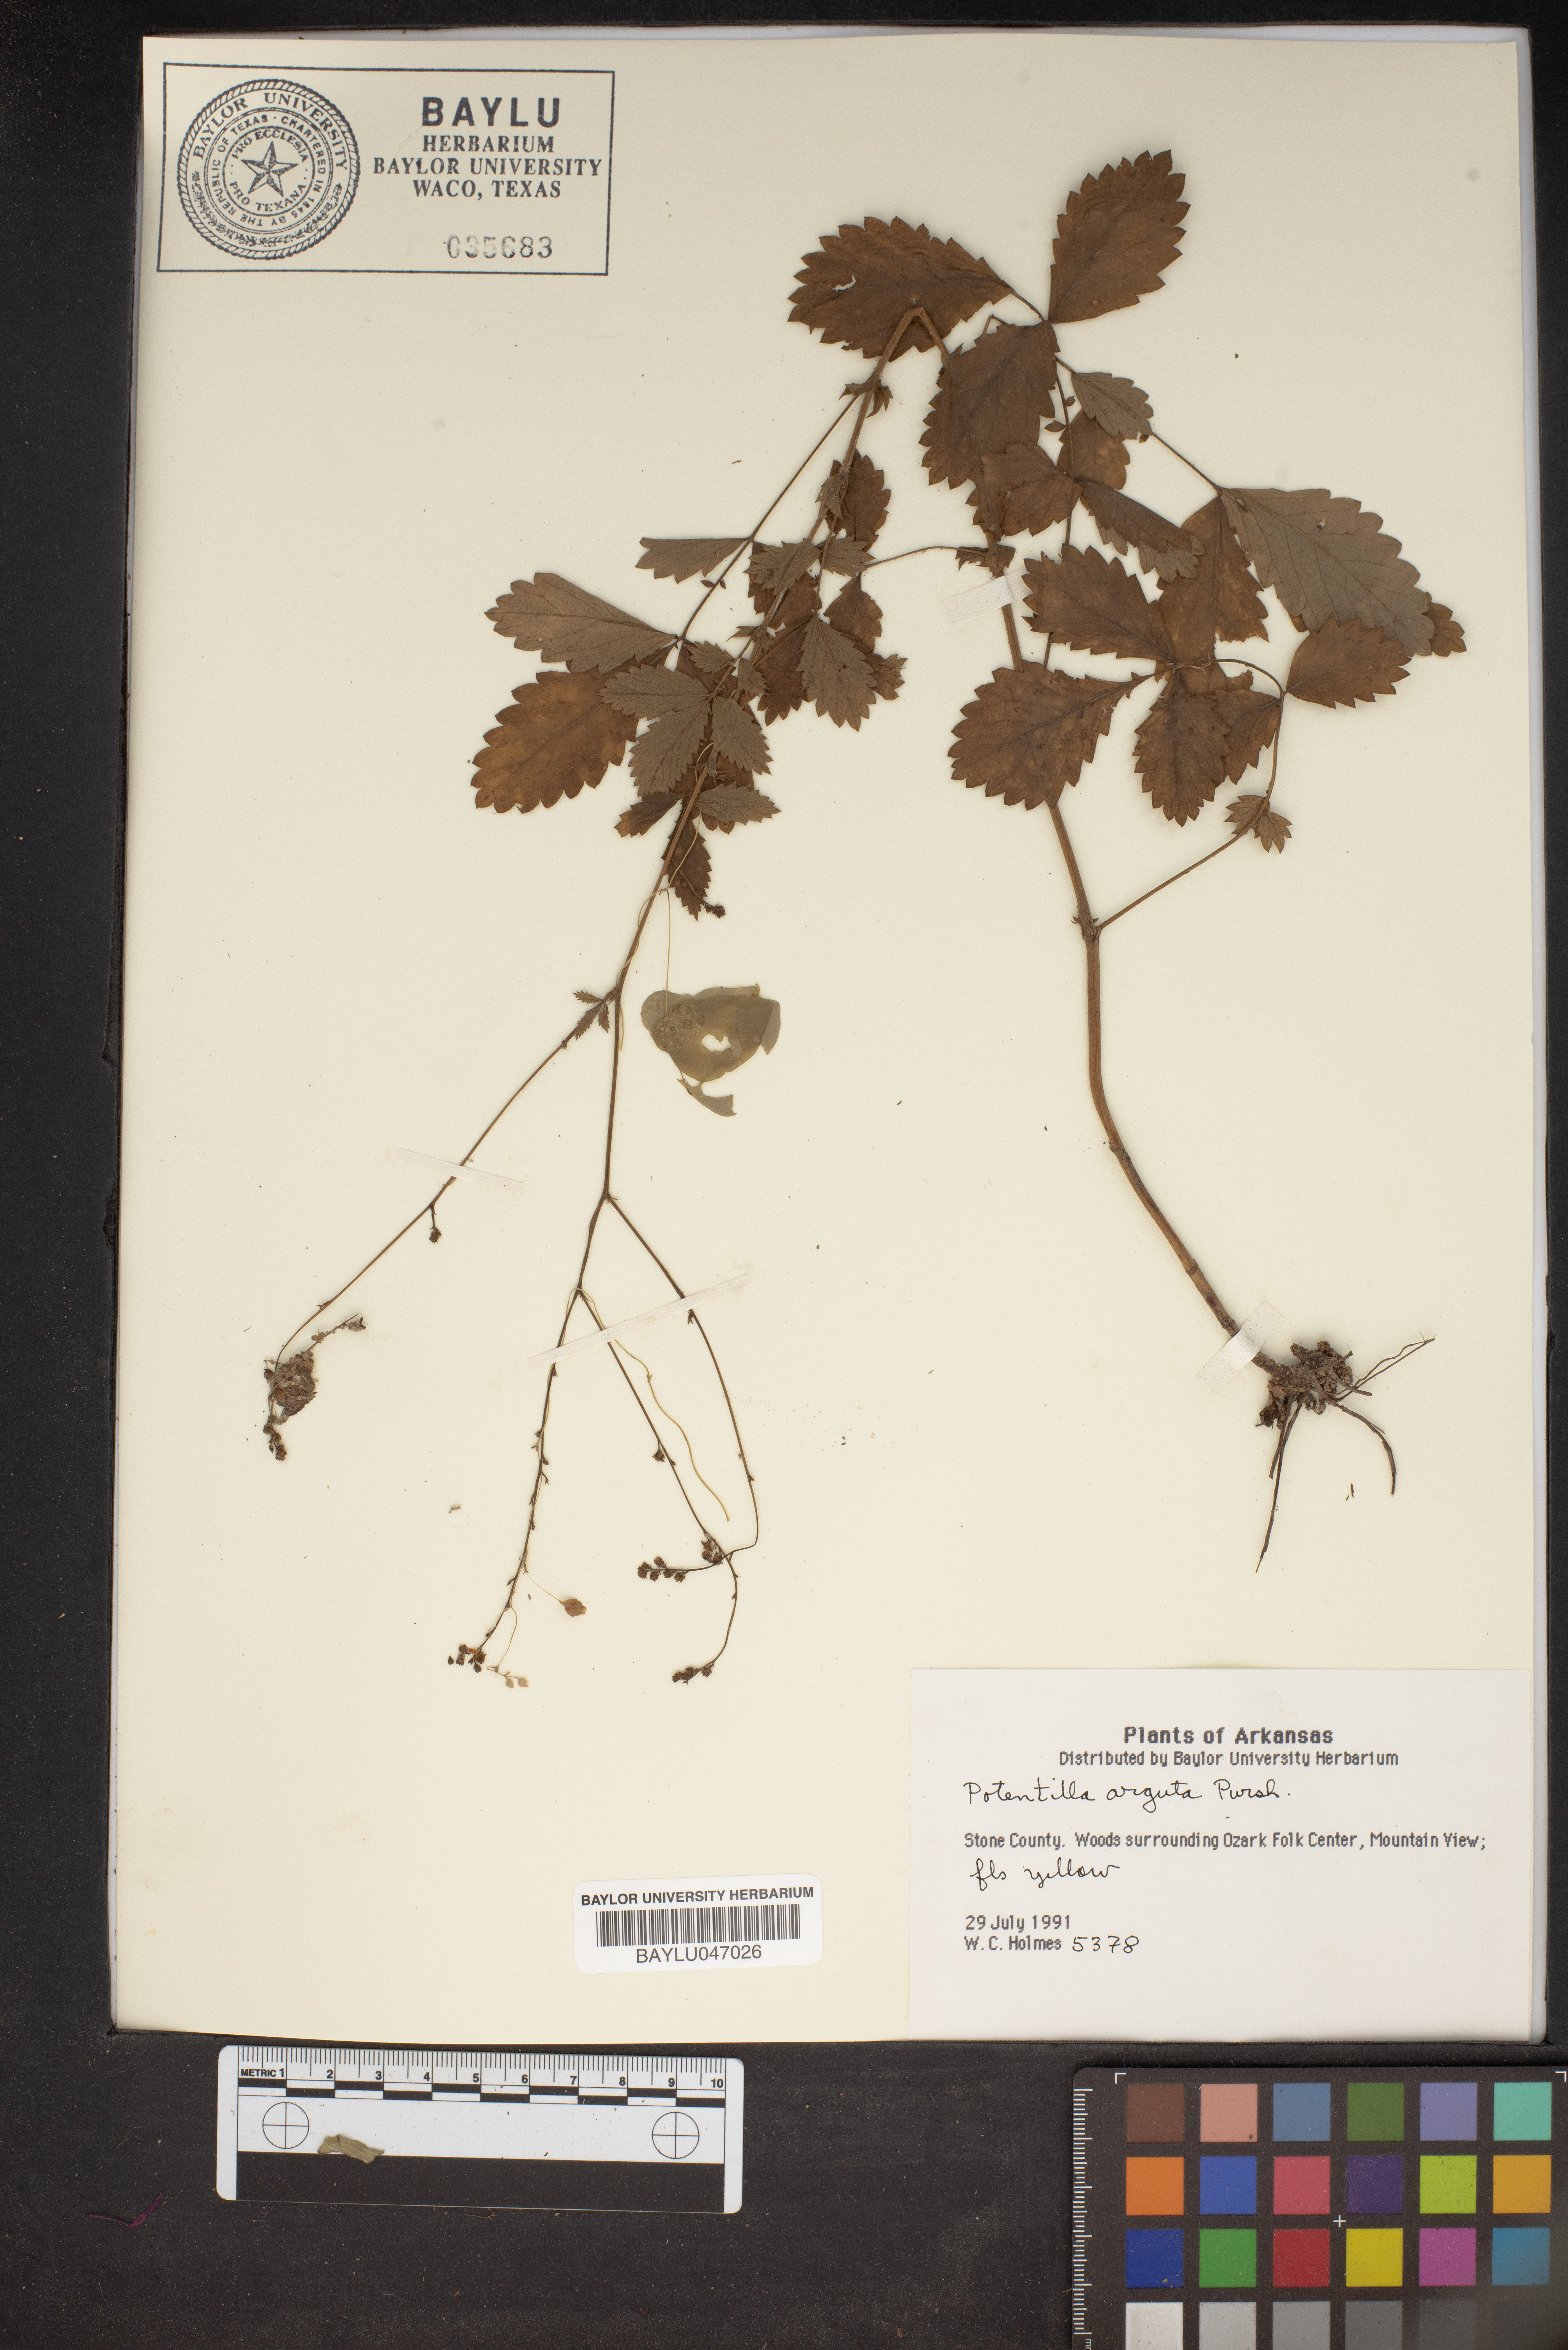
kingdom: Plantae
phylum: Tracheophyta
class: Magnoliopsida
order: Rosales
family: Rosaceae
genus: Drymocallis
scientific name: Drymocallis arguta
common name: Tall cinquefoil
